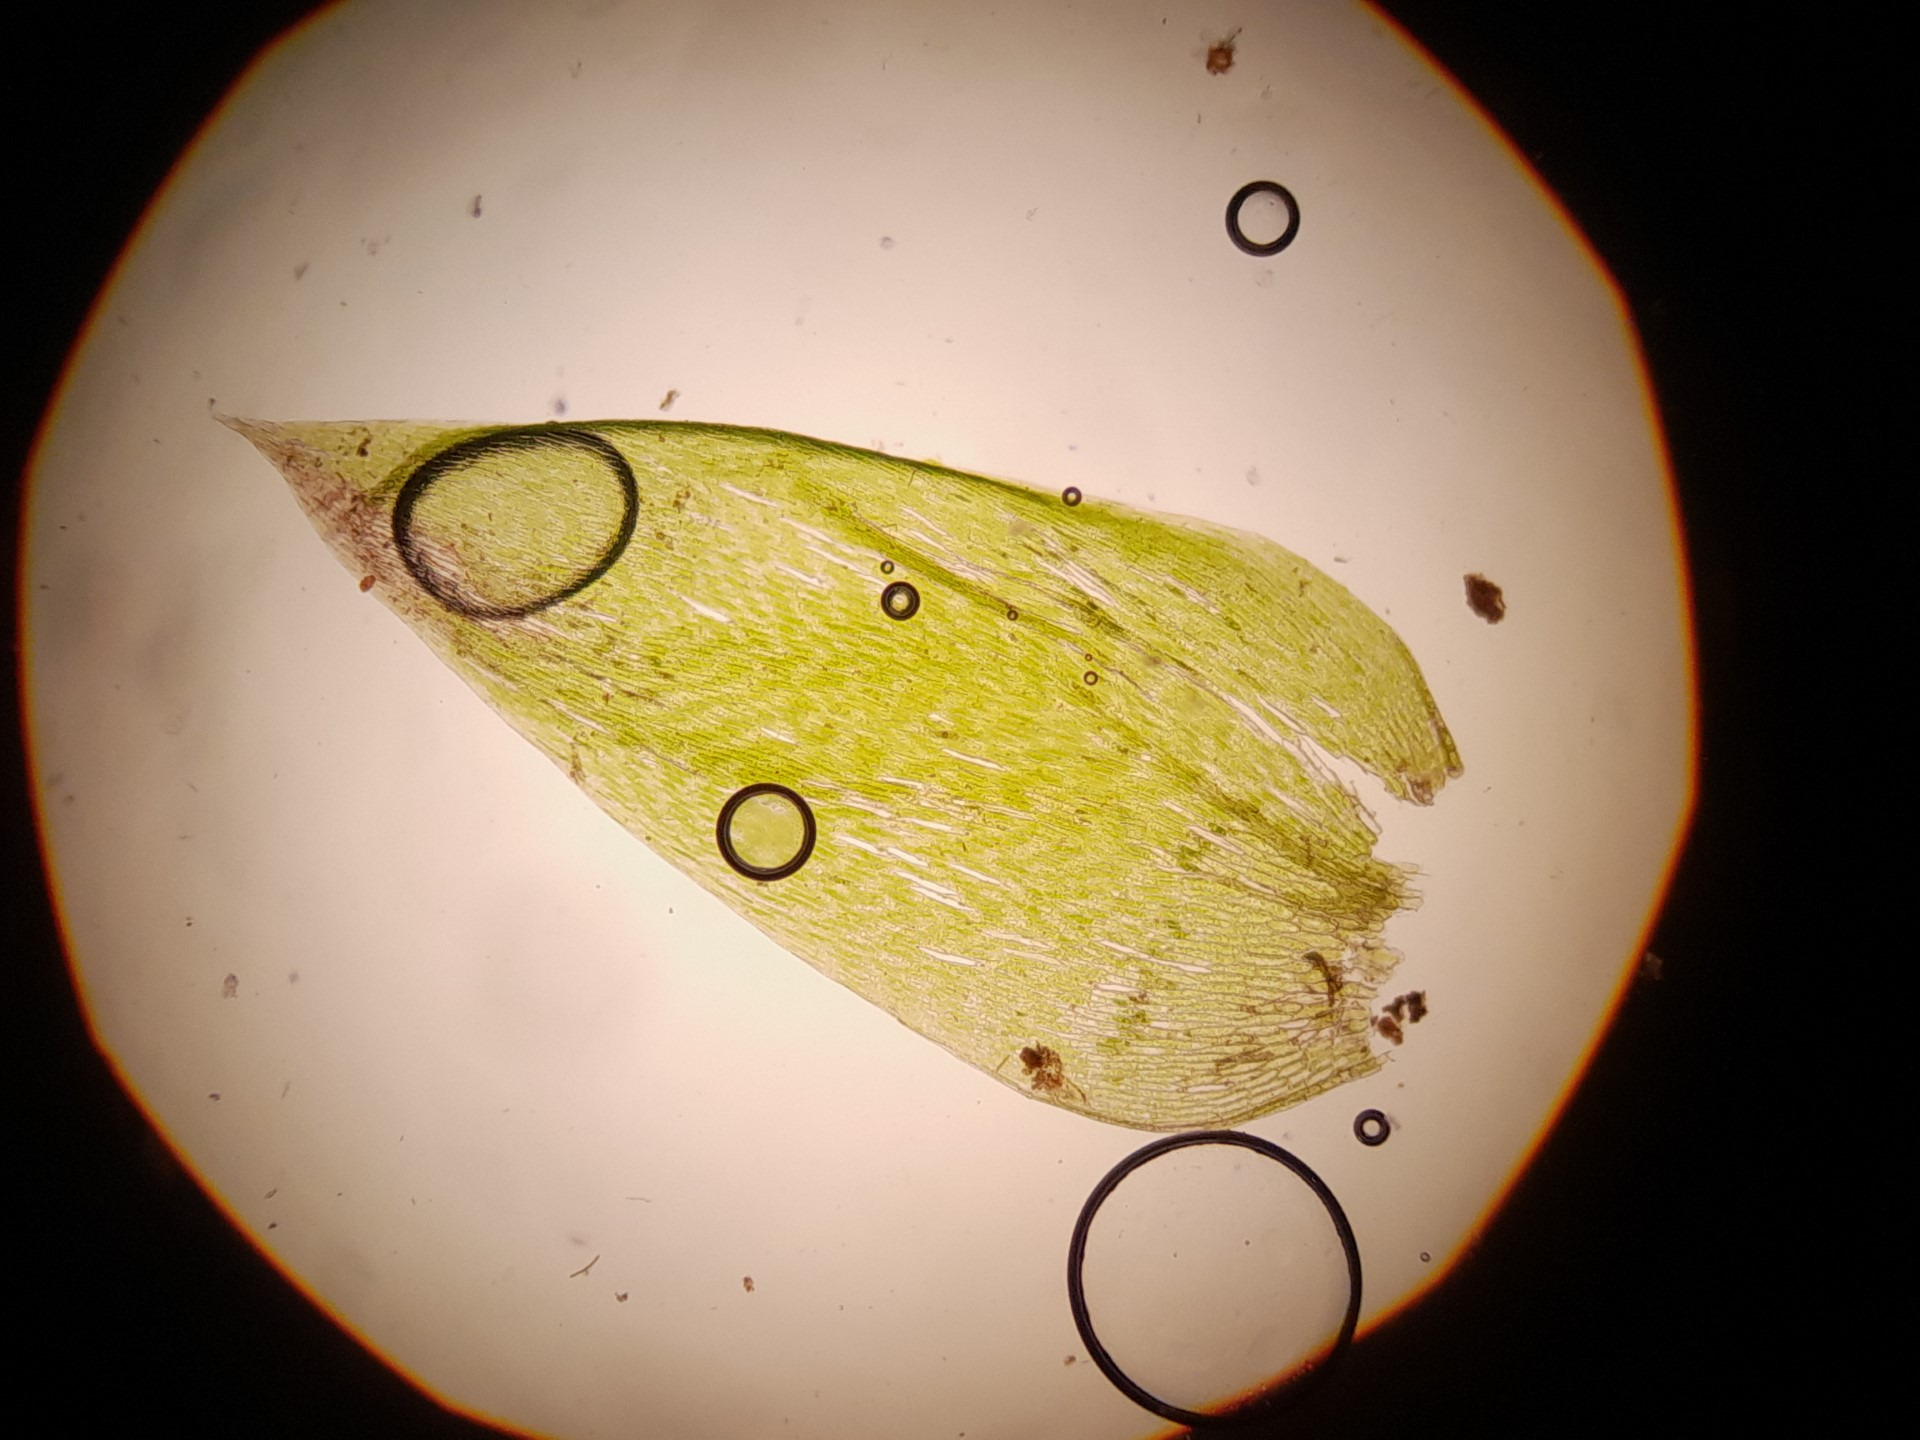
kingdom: Plantae
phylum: Bryophyta
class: Bryopsida
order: Hypnales
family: Plagiotheciaceae
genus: Plagiothecium
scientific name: Plagiothecium cavifolium
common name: Hulbladet tæppemos
